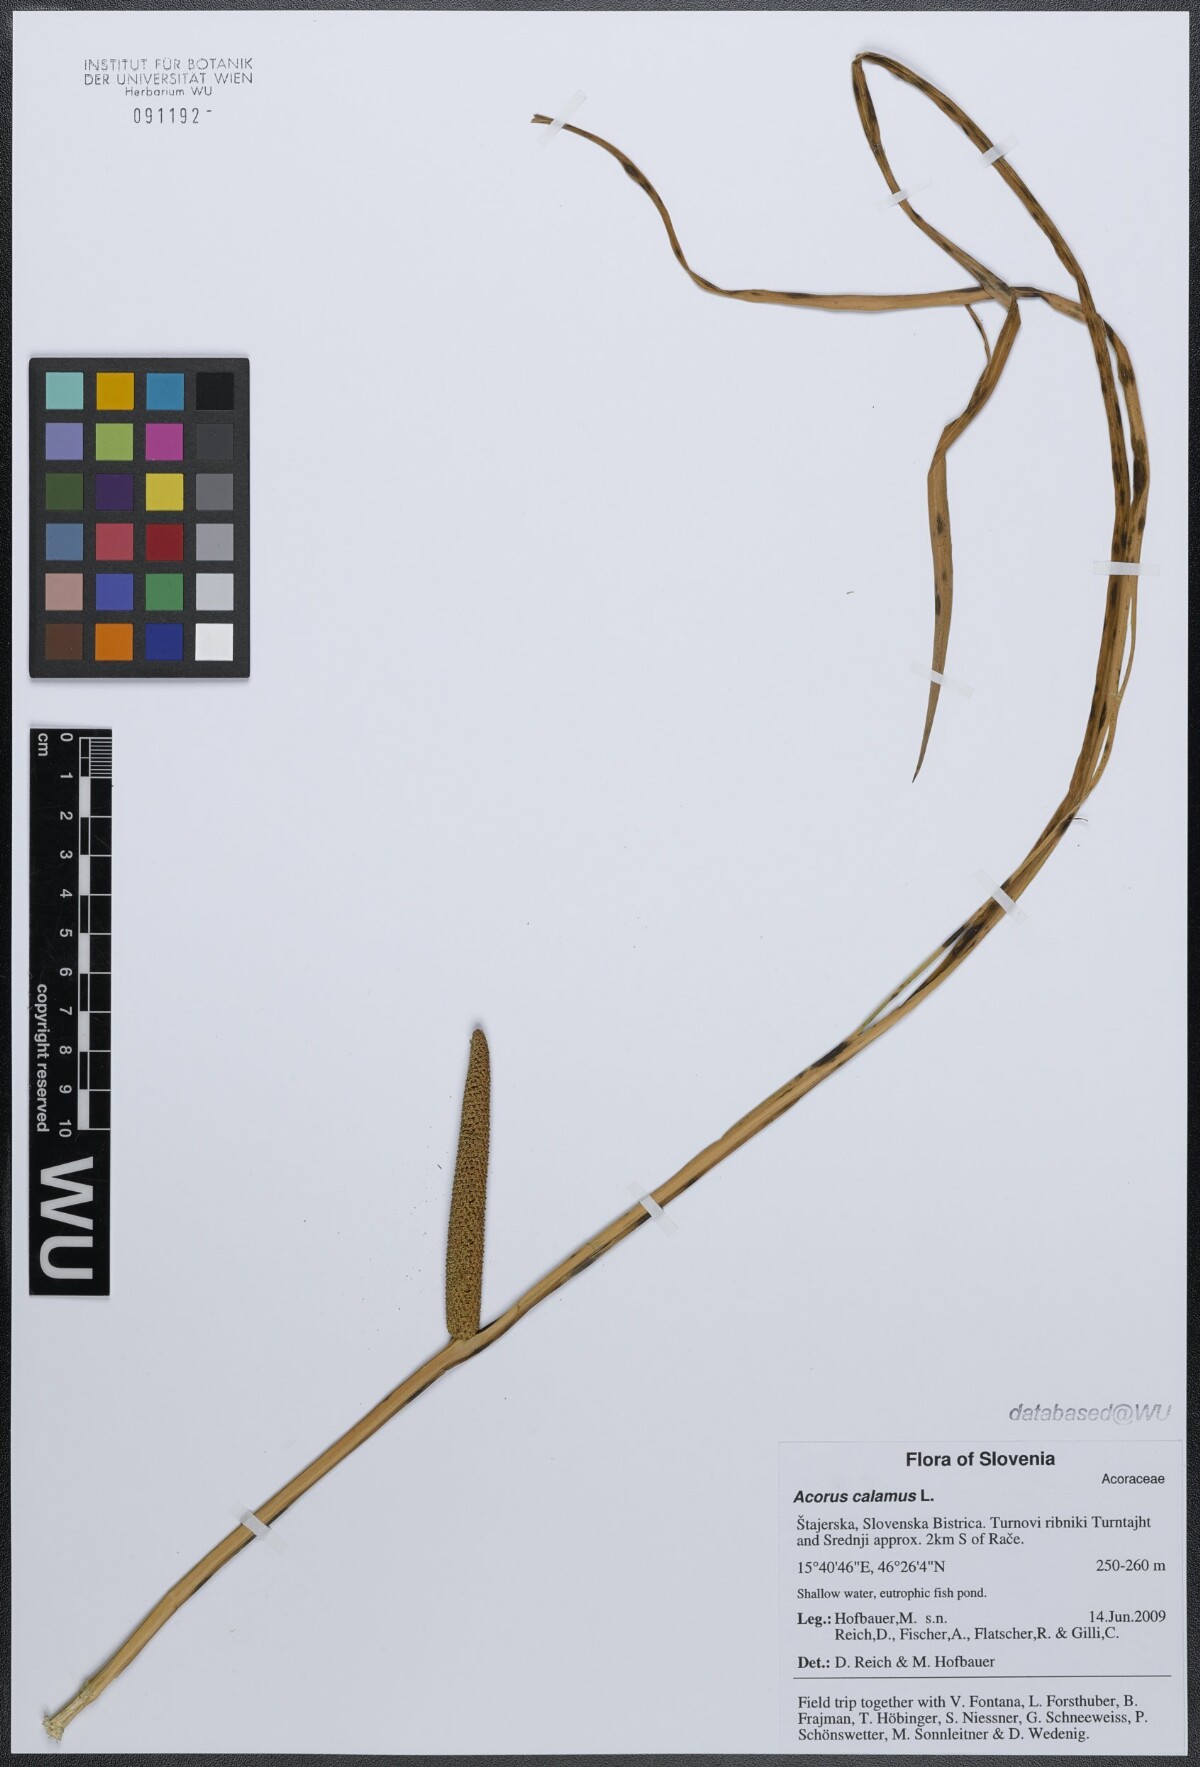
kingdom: Plantae
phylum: Tracheophyta
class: Liliopsida
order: Acorales
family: Acoraceae
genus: Acorus
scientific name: Acorus calamus
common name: Sweet-flag
